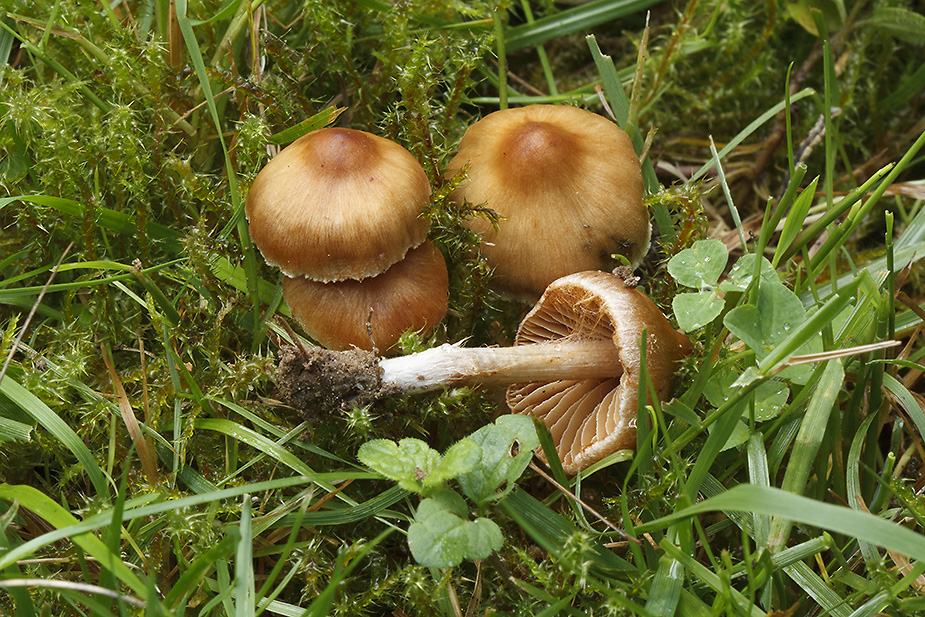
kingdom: Fungi
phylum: Basidiomycota
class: Agaricomycetes
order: Agaricales
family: Cortinariaceae
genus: Cortinarius
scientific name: Cortinarius incisior
